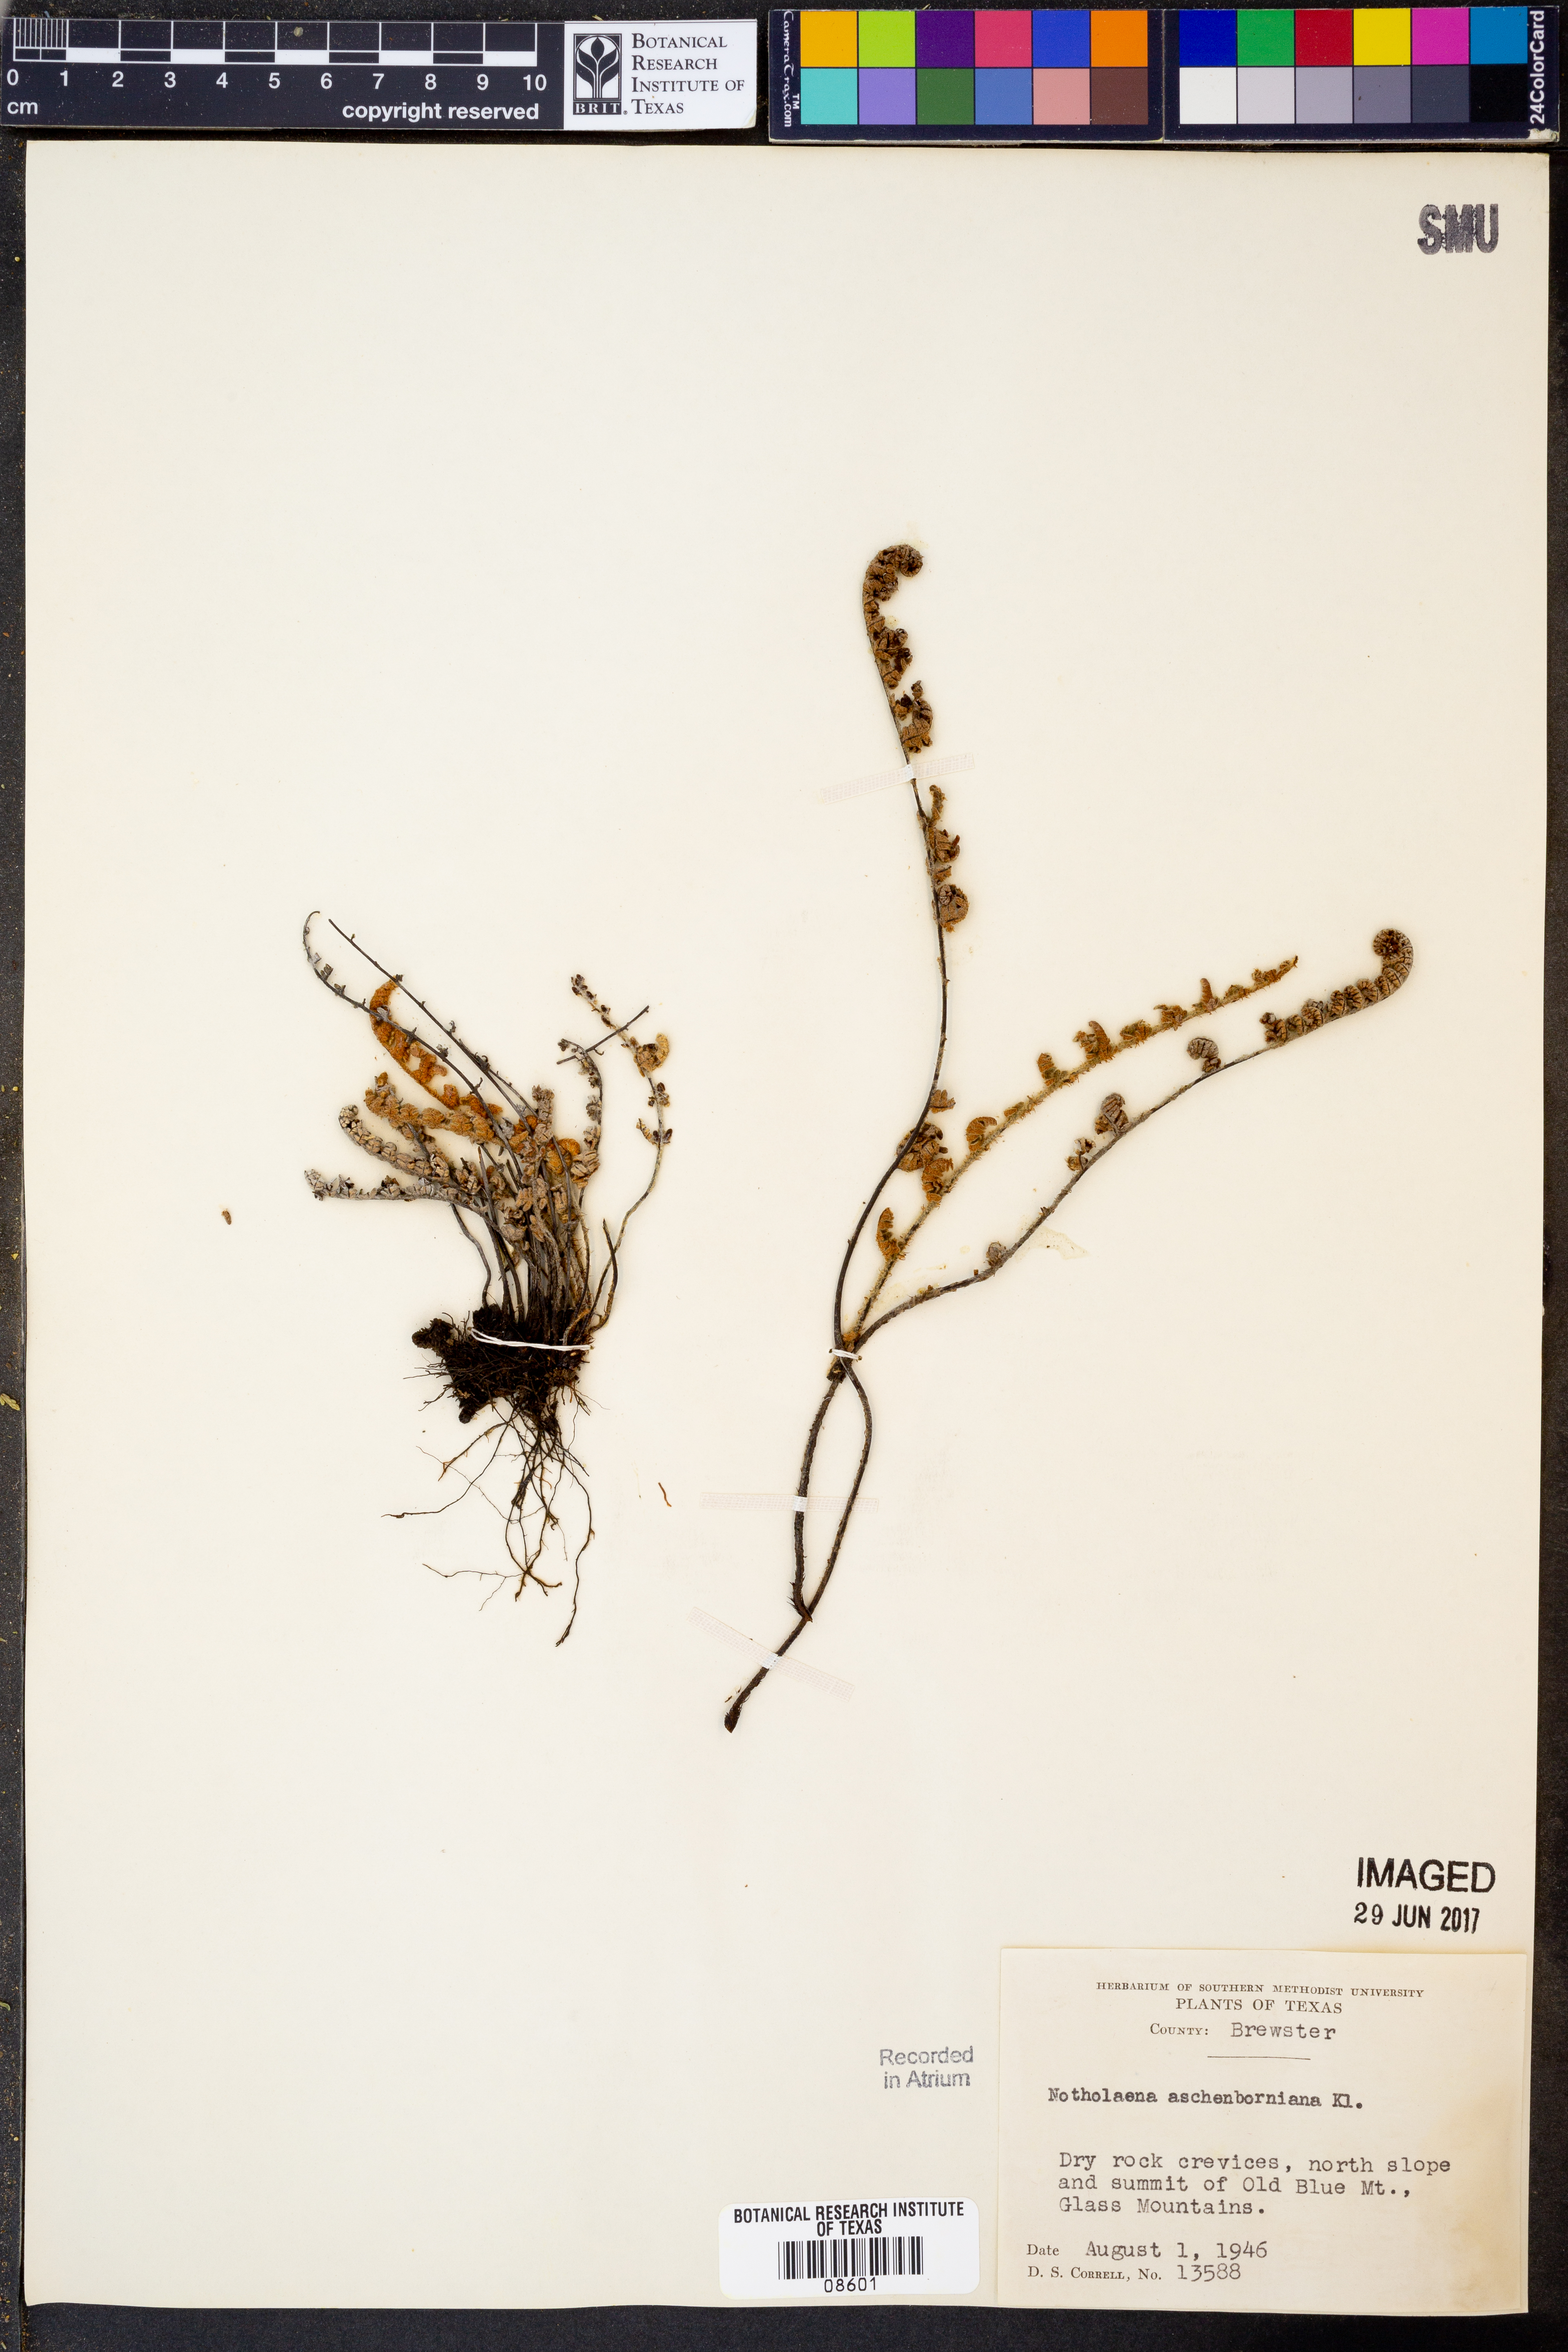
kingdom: Plantae
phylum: Tracheophyta
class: Polypodiopsida
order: Polypodiales
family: Pteridaceae
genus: Notholaena
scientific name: Notholaena aschenborniana
